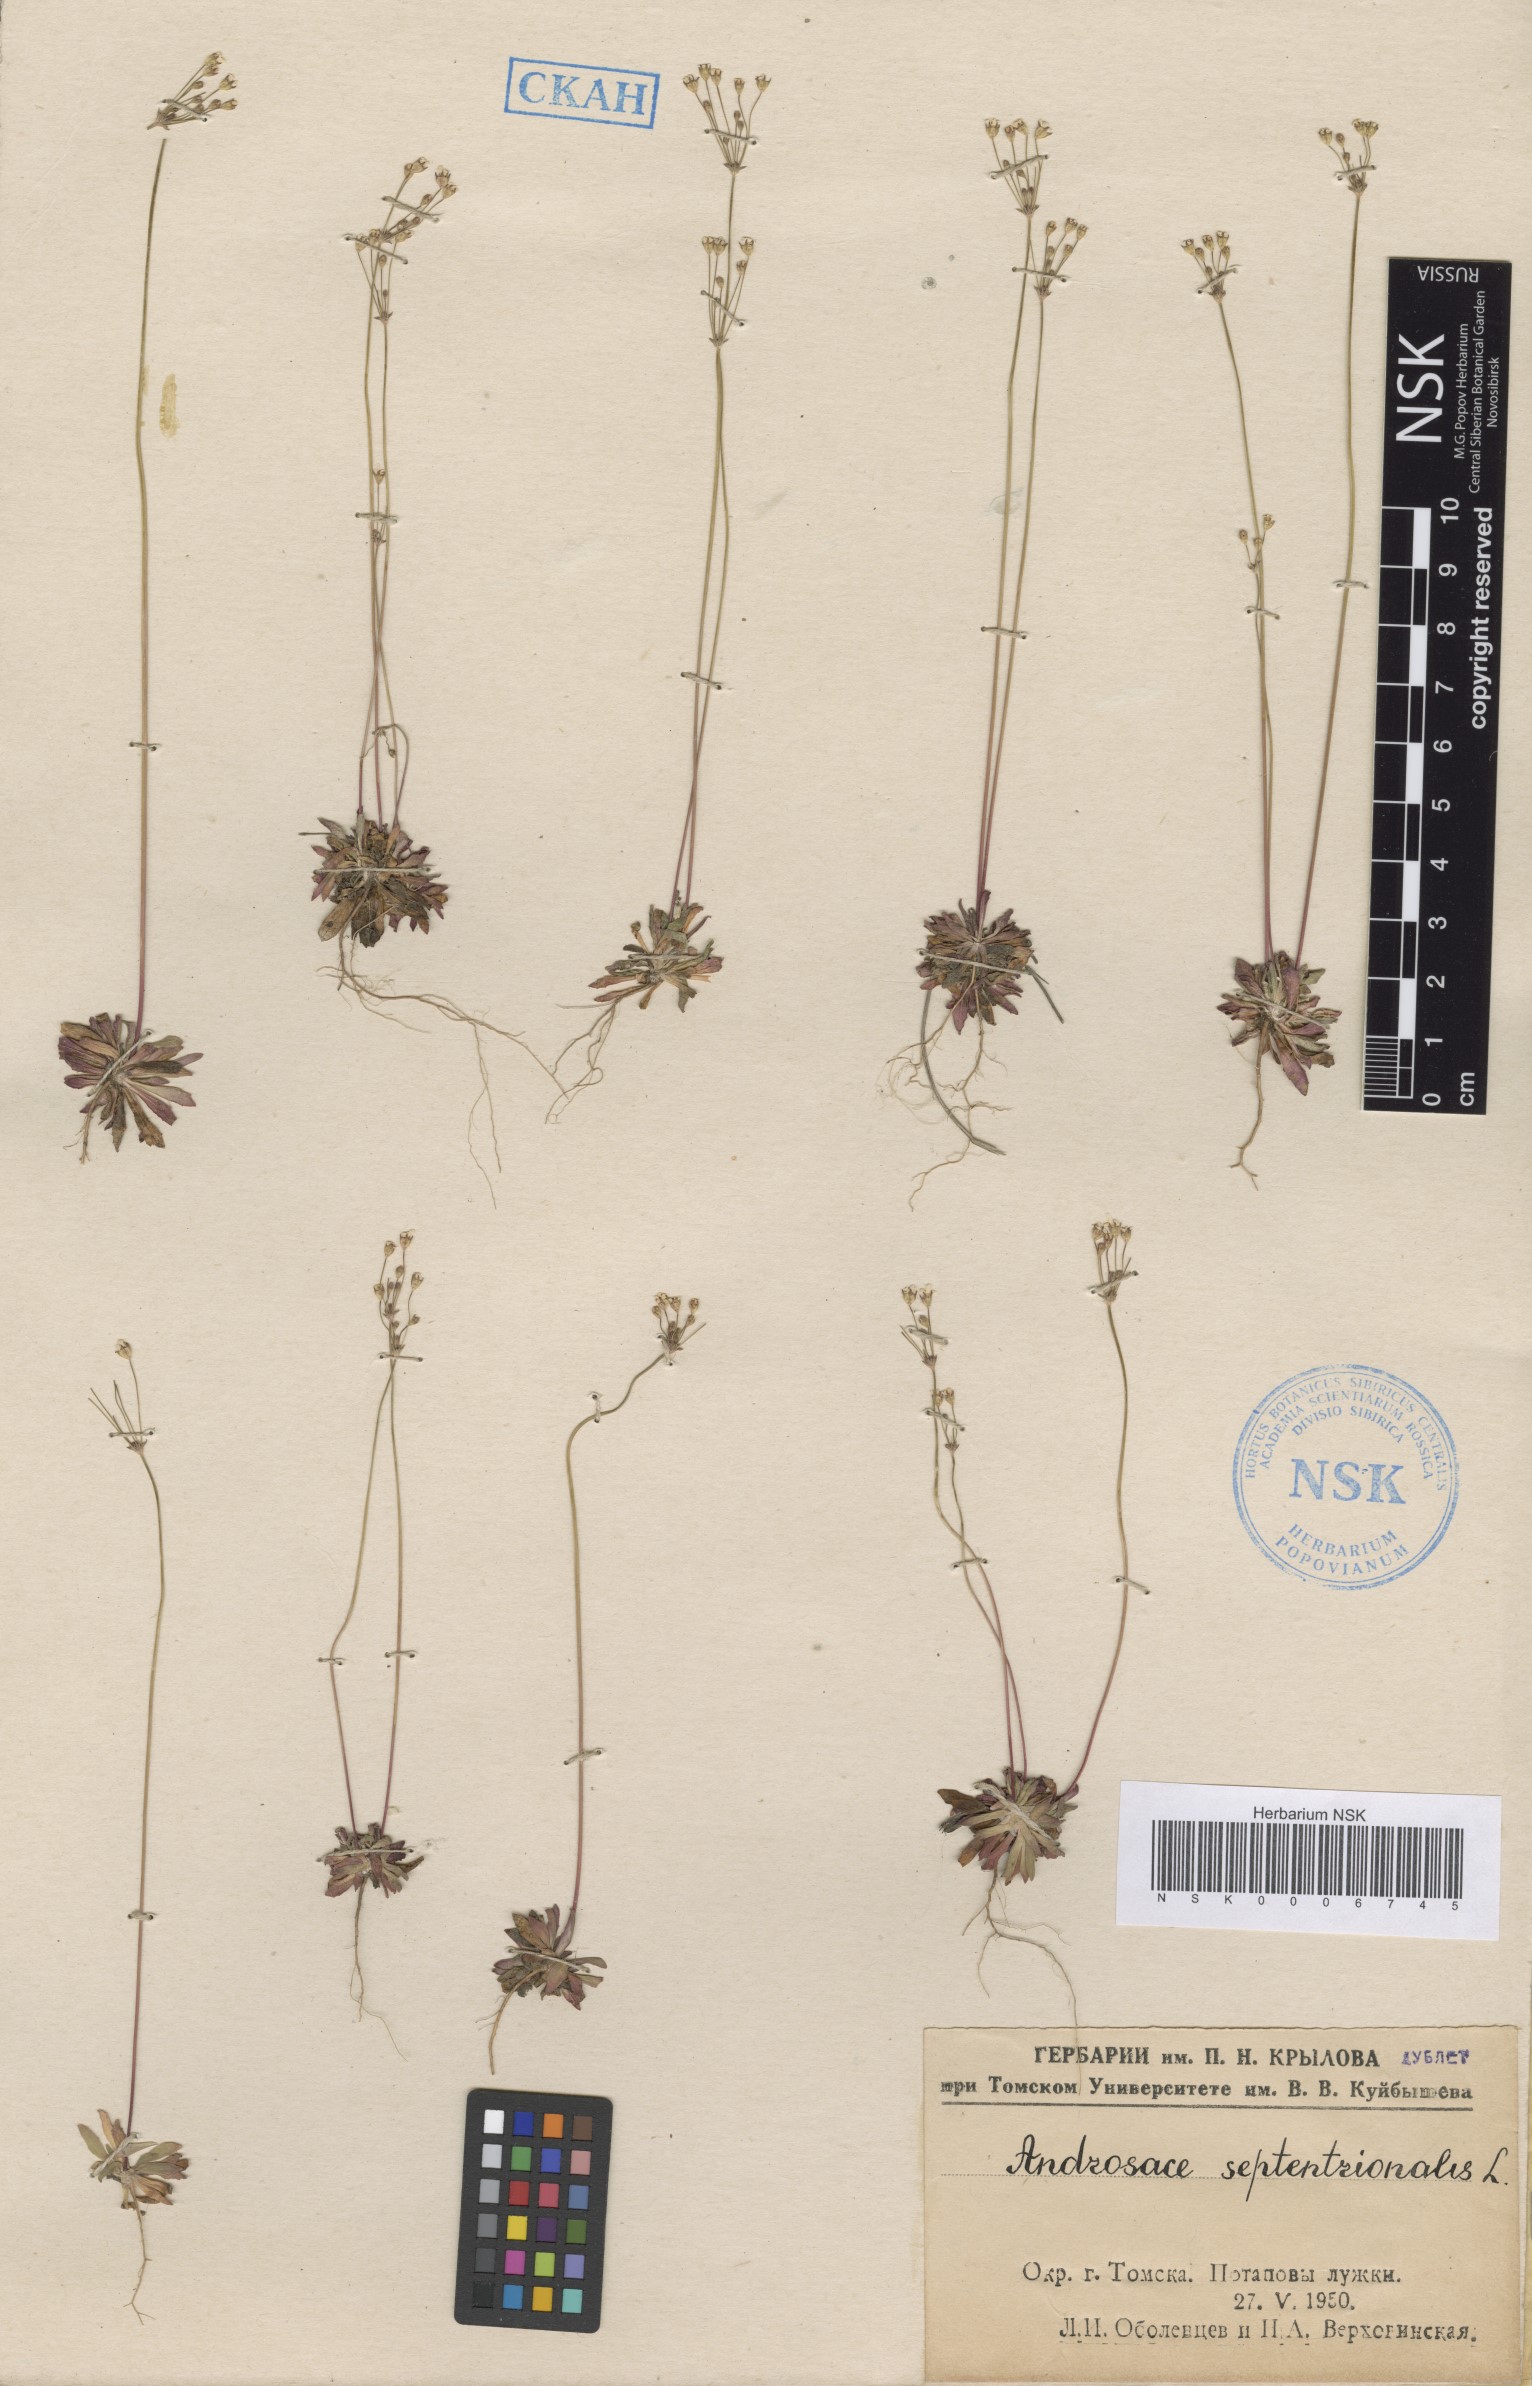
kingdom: Plantae
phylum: Tracheophyta
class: Magnoliopsida
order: Ericales
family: Primulaceae
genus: Androsace
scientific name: Androsace septentrionalis
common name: Hairy northern fairy-candelabra
